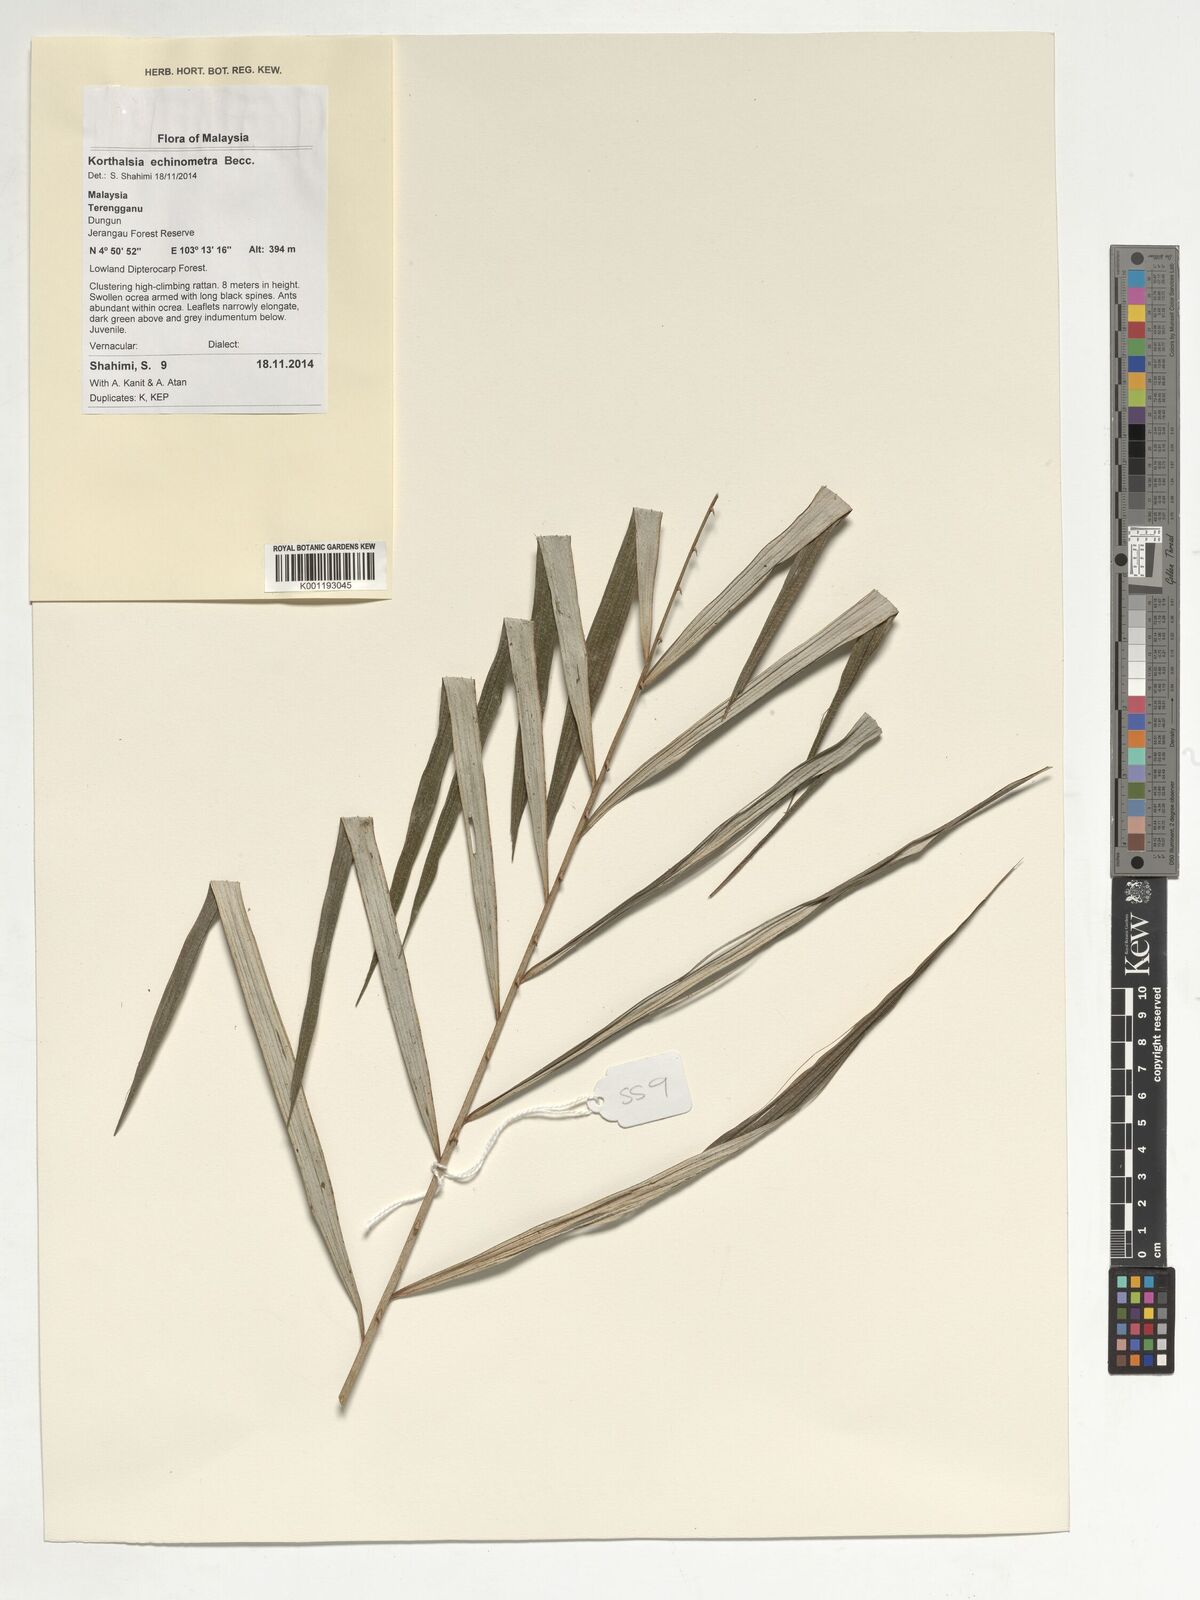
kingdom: Plantae
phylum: Tracheophyta
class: Liliopsida
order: Arecales
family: Arecaceae
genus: Korthalsia
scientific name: Korthalsia echinometra
